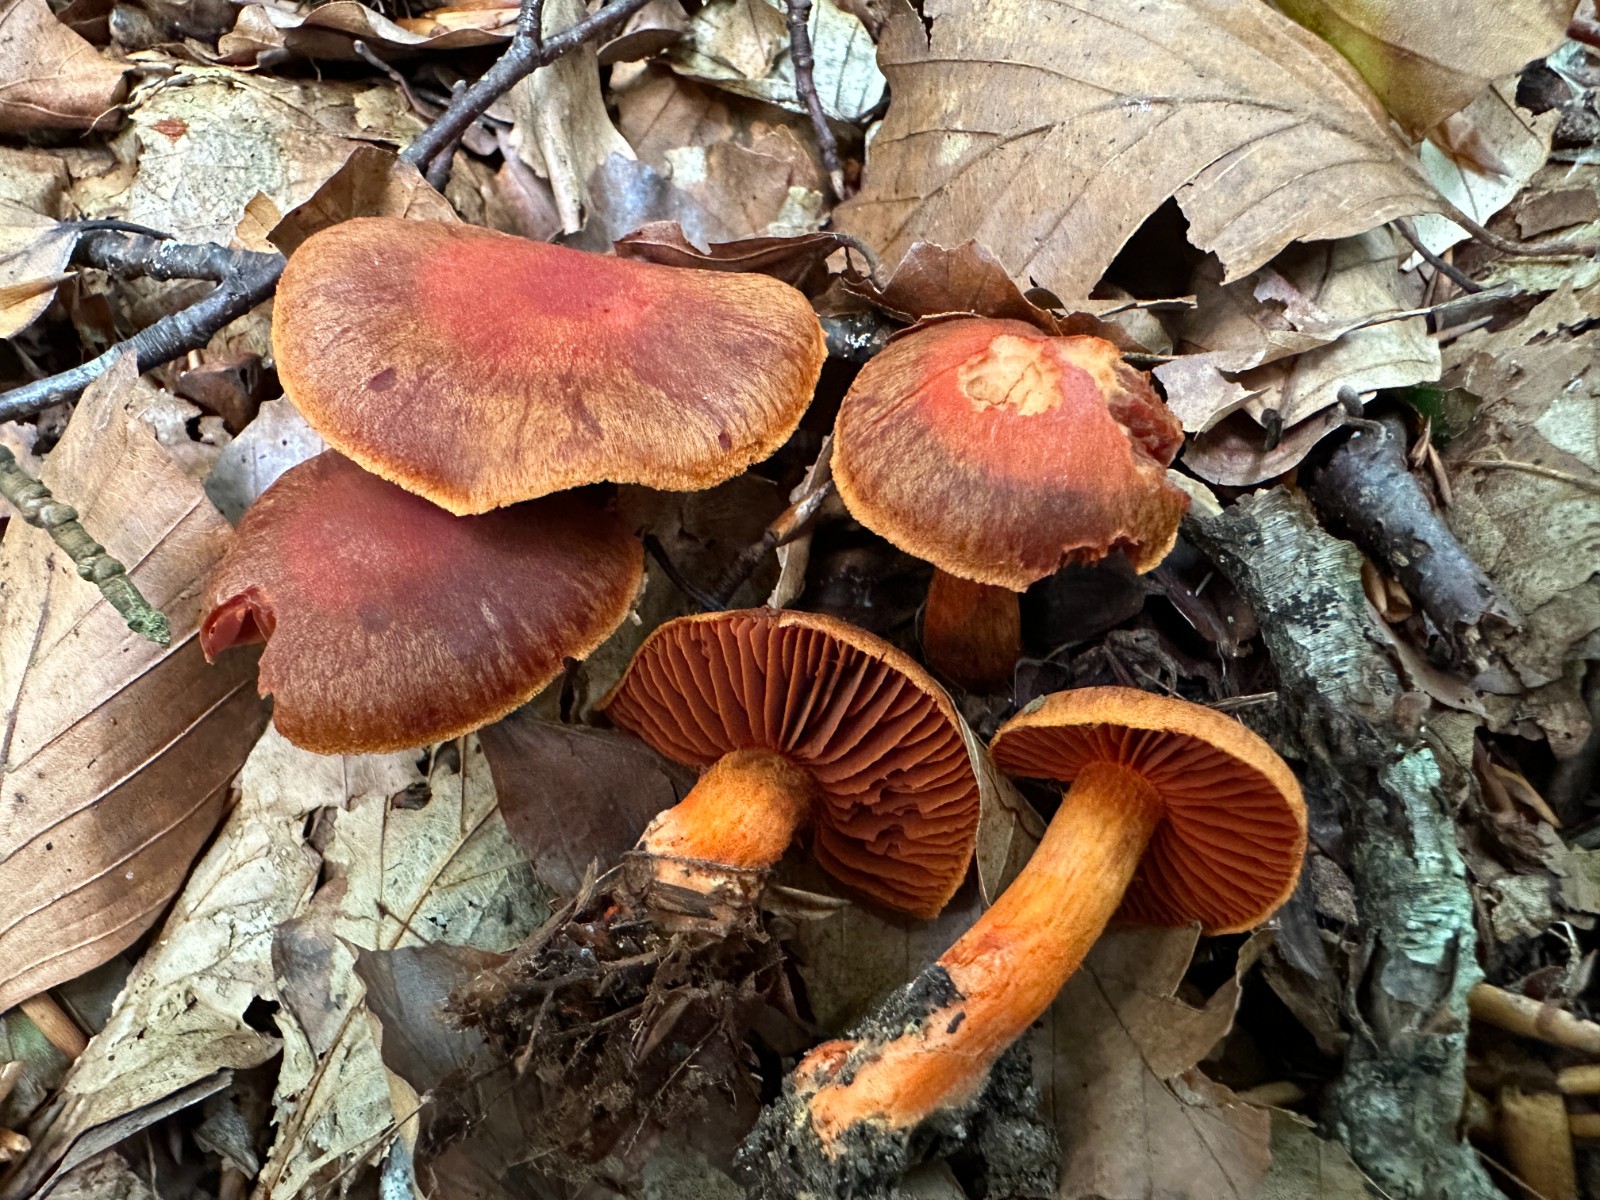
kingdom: Fungi
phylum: Basidiomycota
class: Agaricomycetes
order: Agaricales
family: Cortinariaceae
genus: Cortinarius
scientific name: Cortinarius cinnabarinus
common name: cinnober-slørhat
